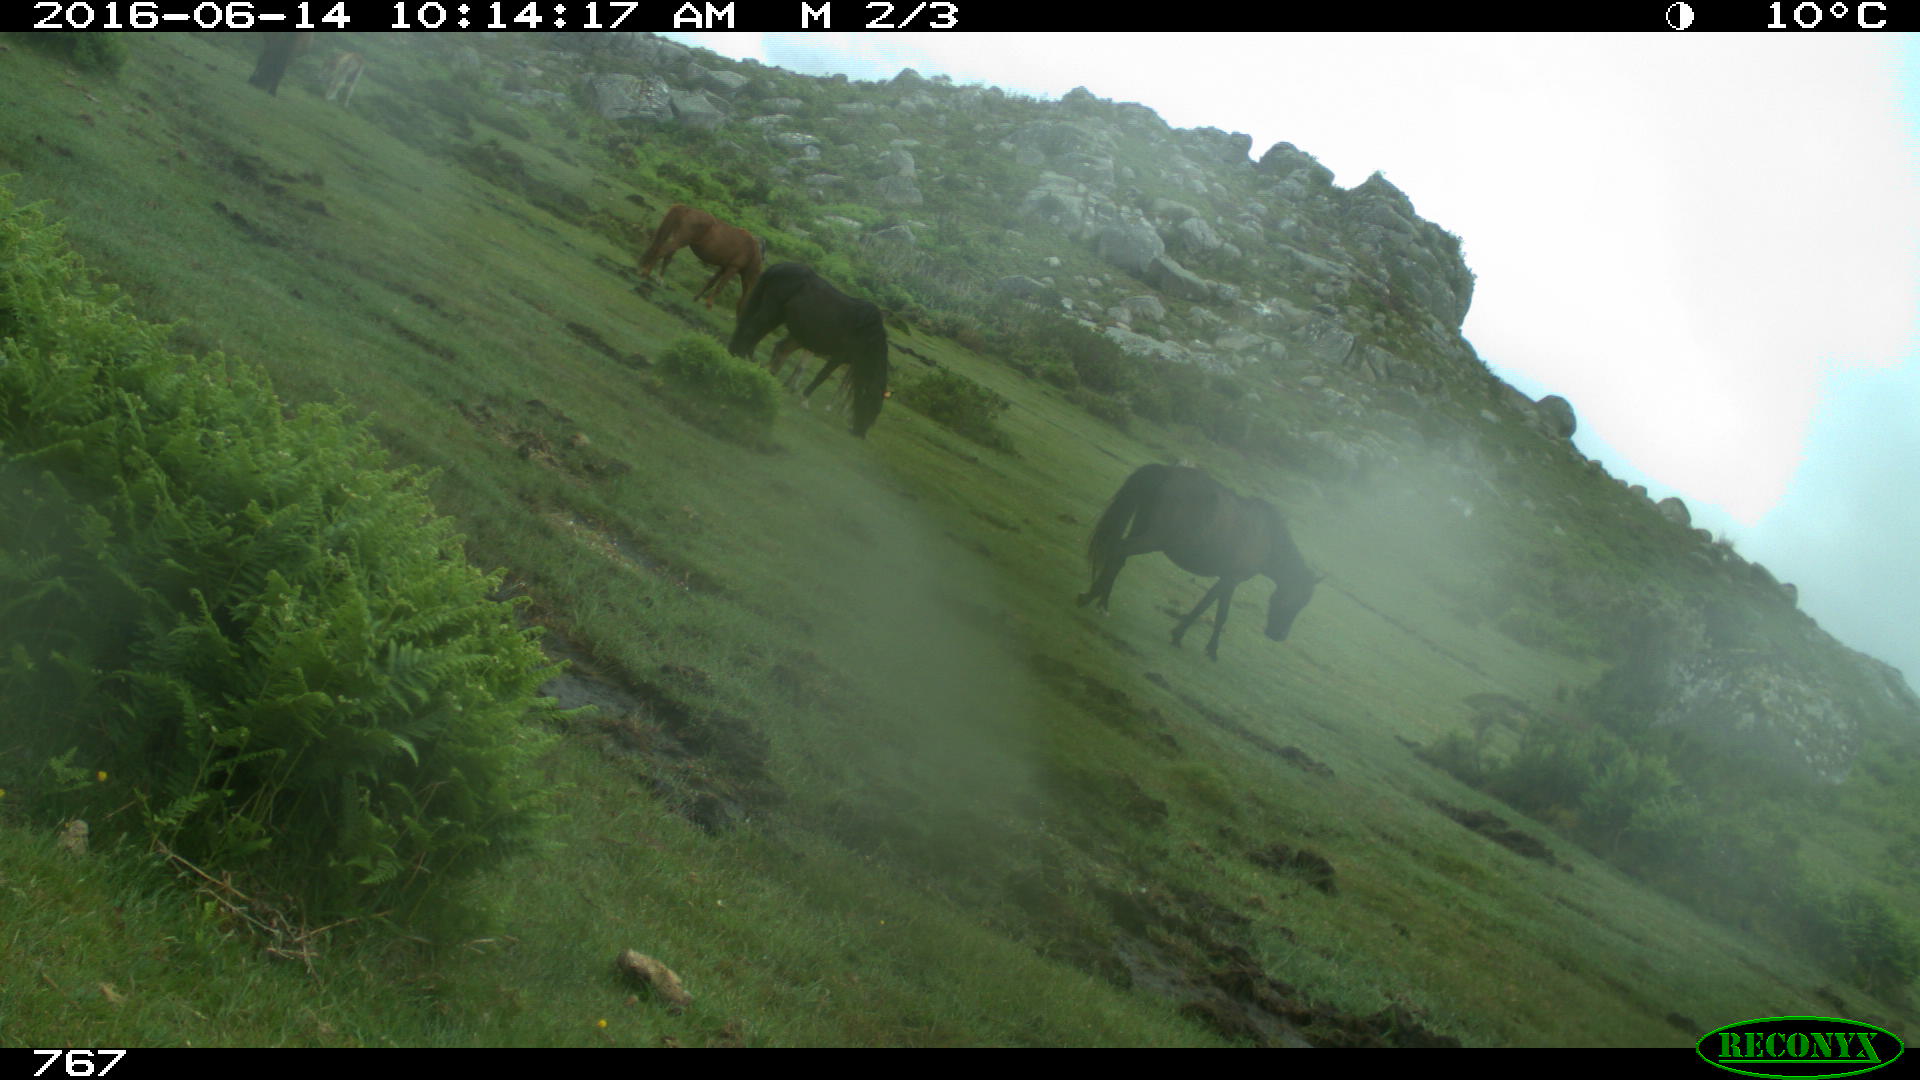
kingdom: Animalia
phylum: Chordata
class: Mammalia
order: Perissodactyla
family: Equidae
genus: Equus
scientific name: Equus caballus
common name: Horse
